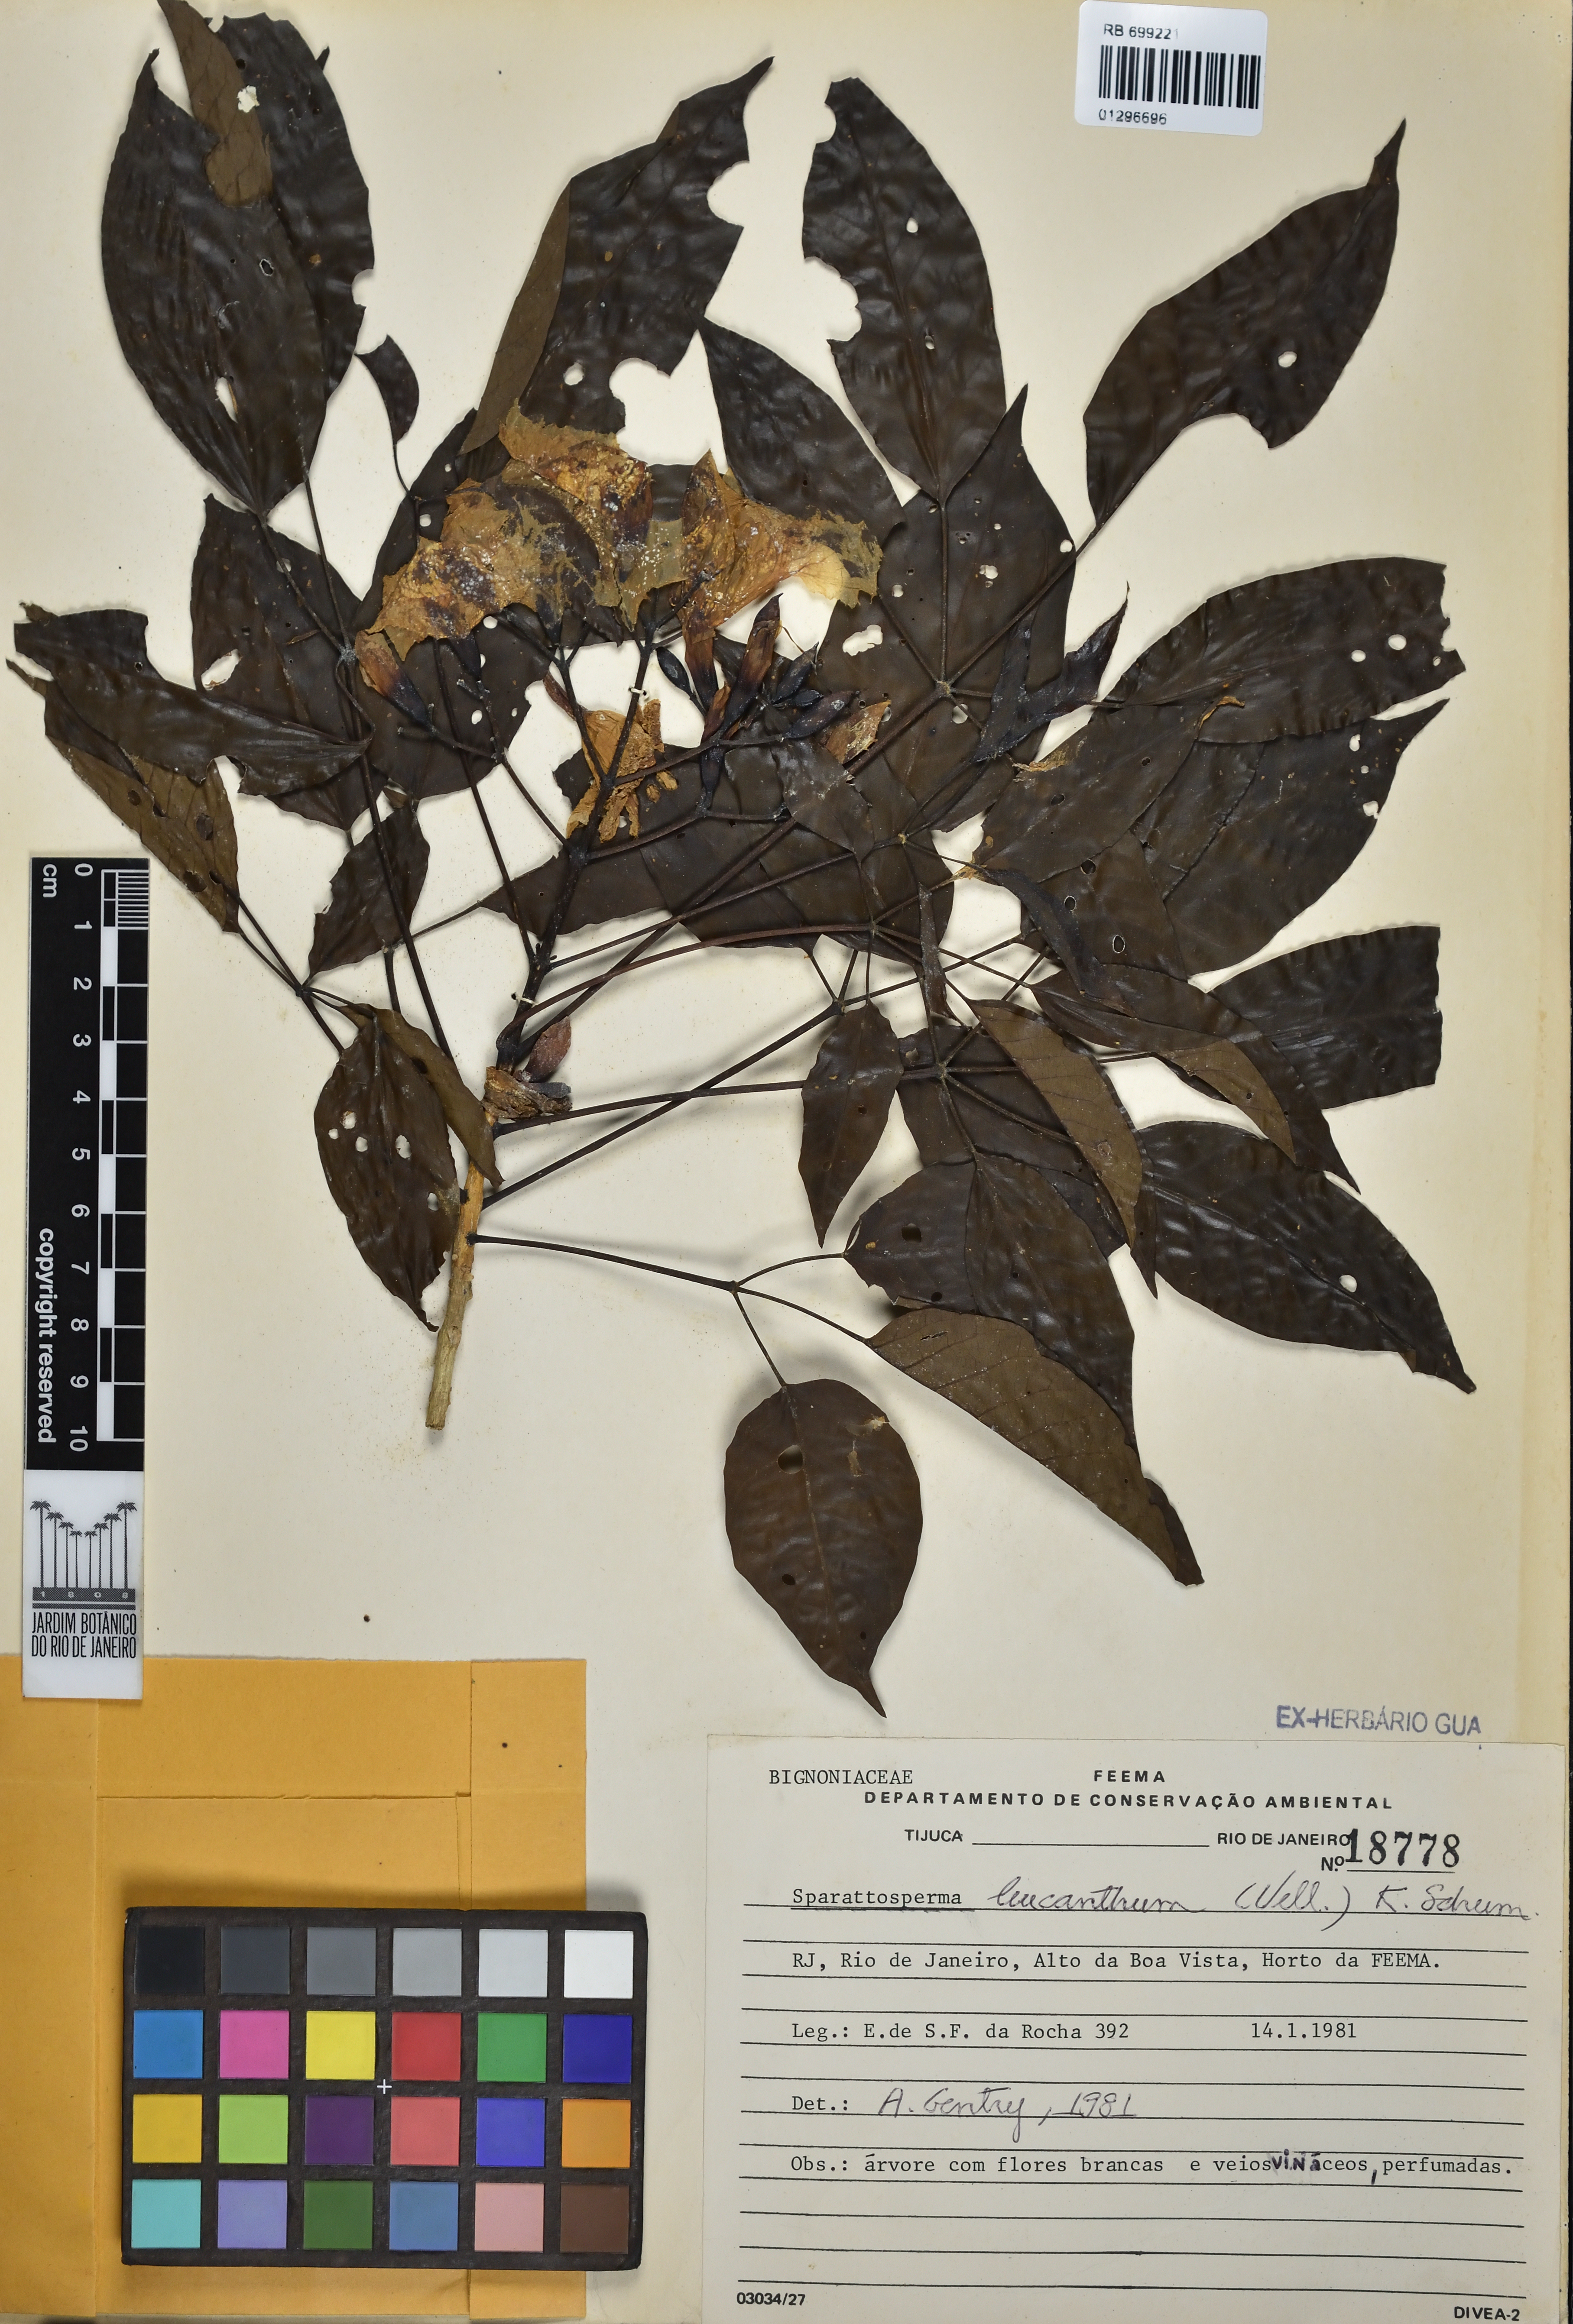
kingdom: Plantae
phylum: Tracheophyta
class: Magnoliopsida
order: Lamiales
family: Bignoniaceae
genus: Sparattosperma
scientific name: Sparattosperma leucanthum
